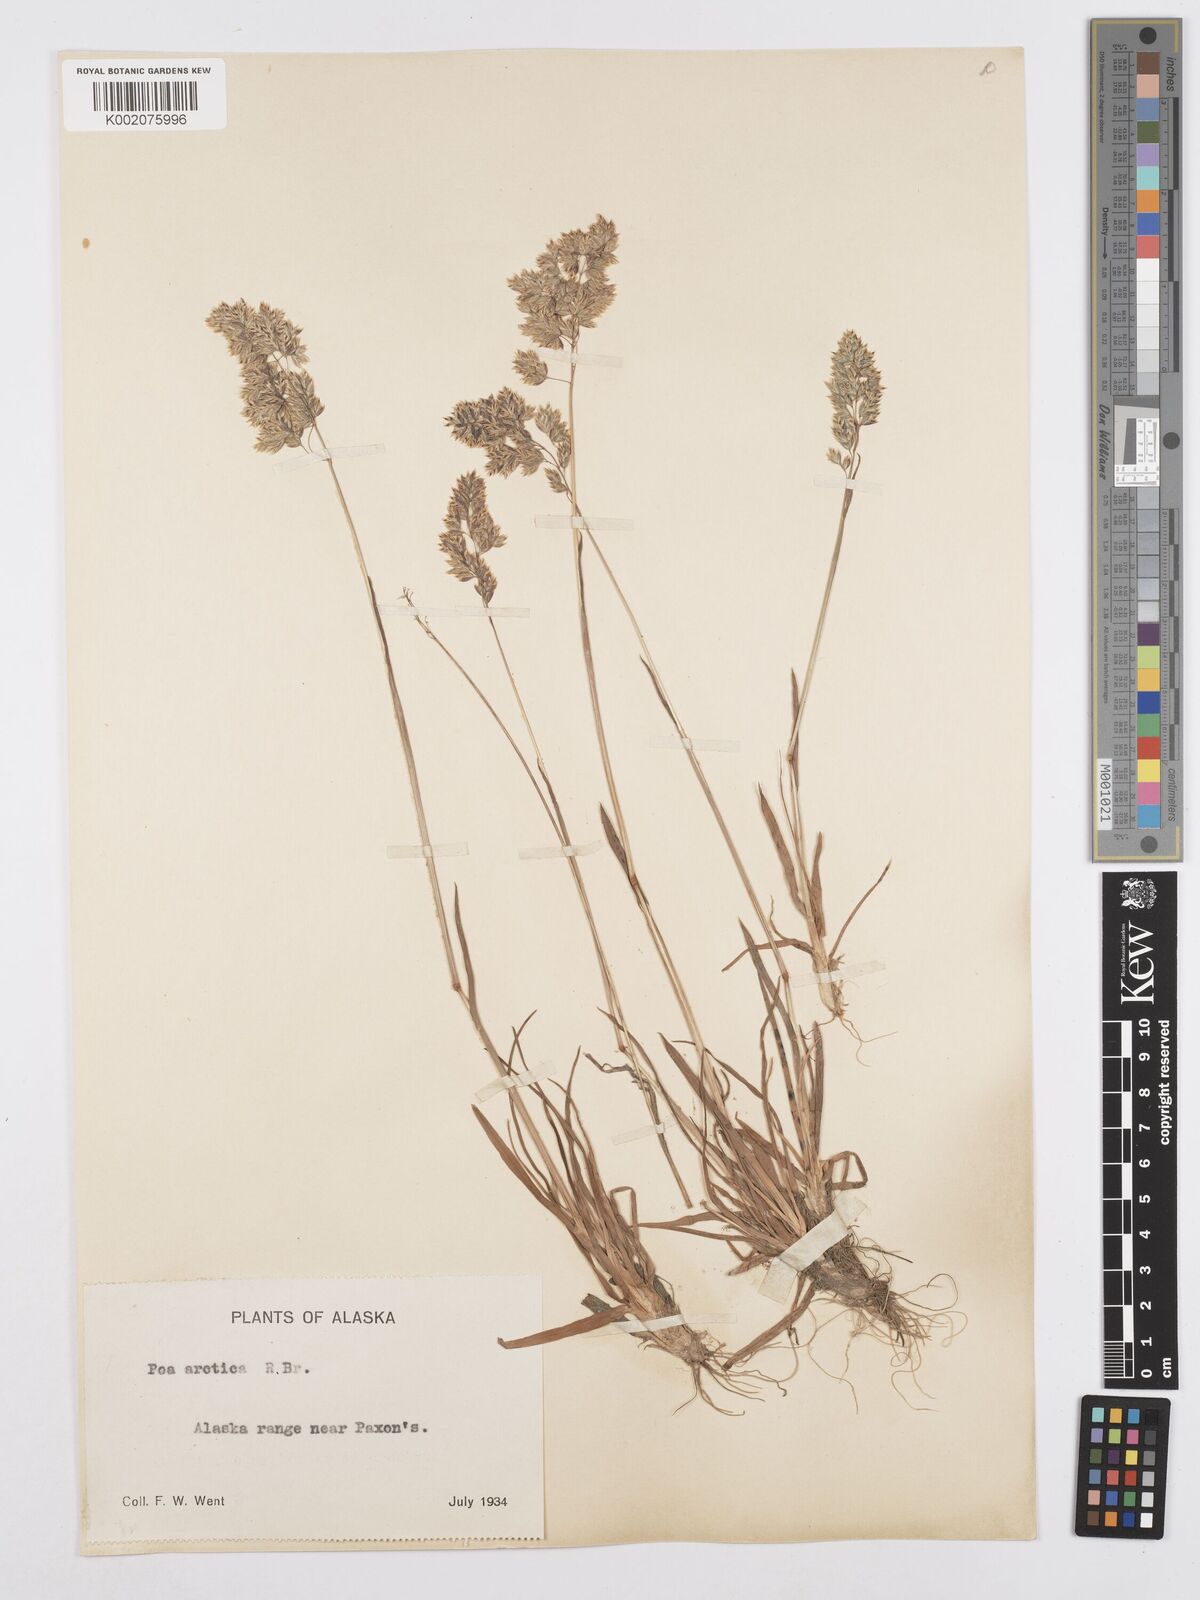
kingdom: Plantae
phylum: Tracheophyta
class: Liliopsida
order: Poales
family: Poaceae
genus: Poa
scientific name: Poa alpina
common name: Alpine bluegrass
